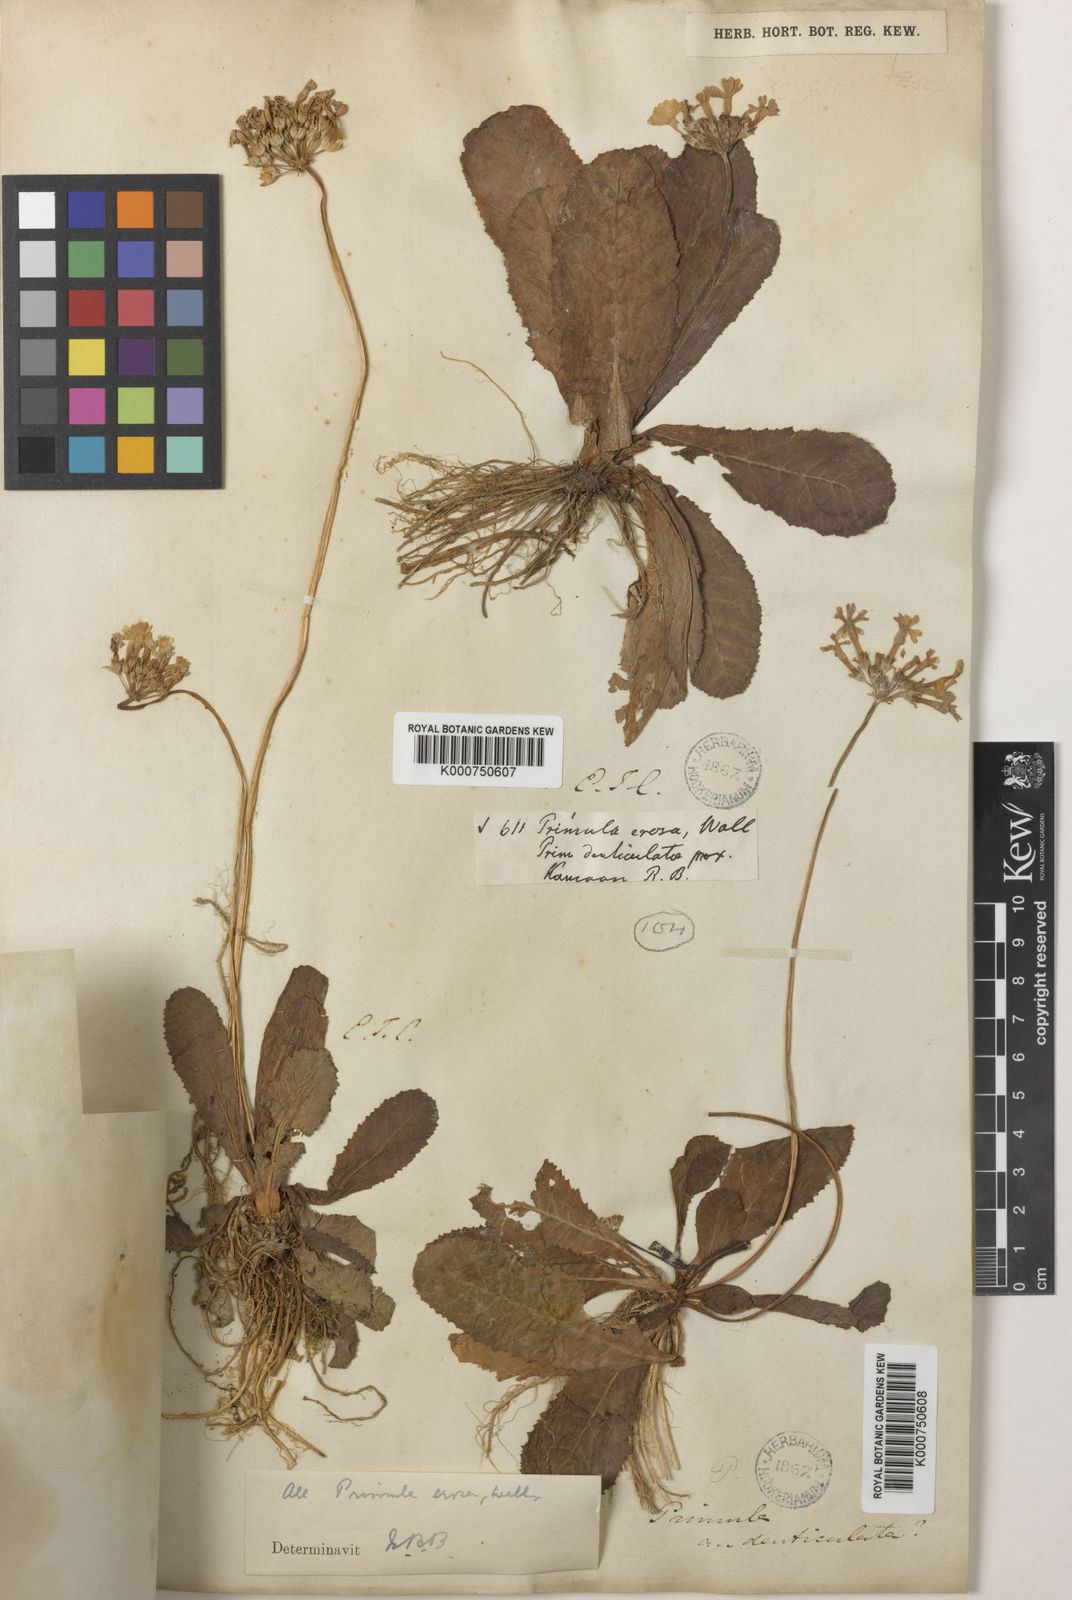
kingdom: Plantae
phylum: Tracheophyta
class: Magnoliopsida
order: Ericales
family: Primulaceae
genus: Primula
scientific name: Primula
